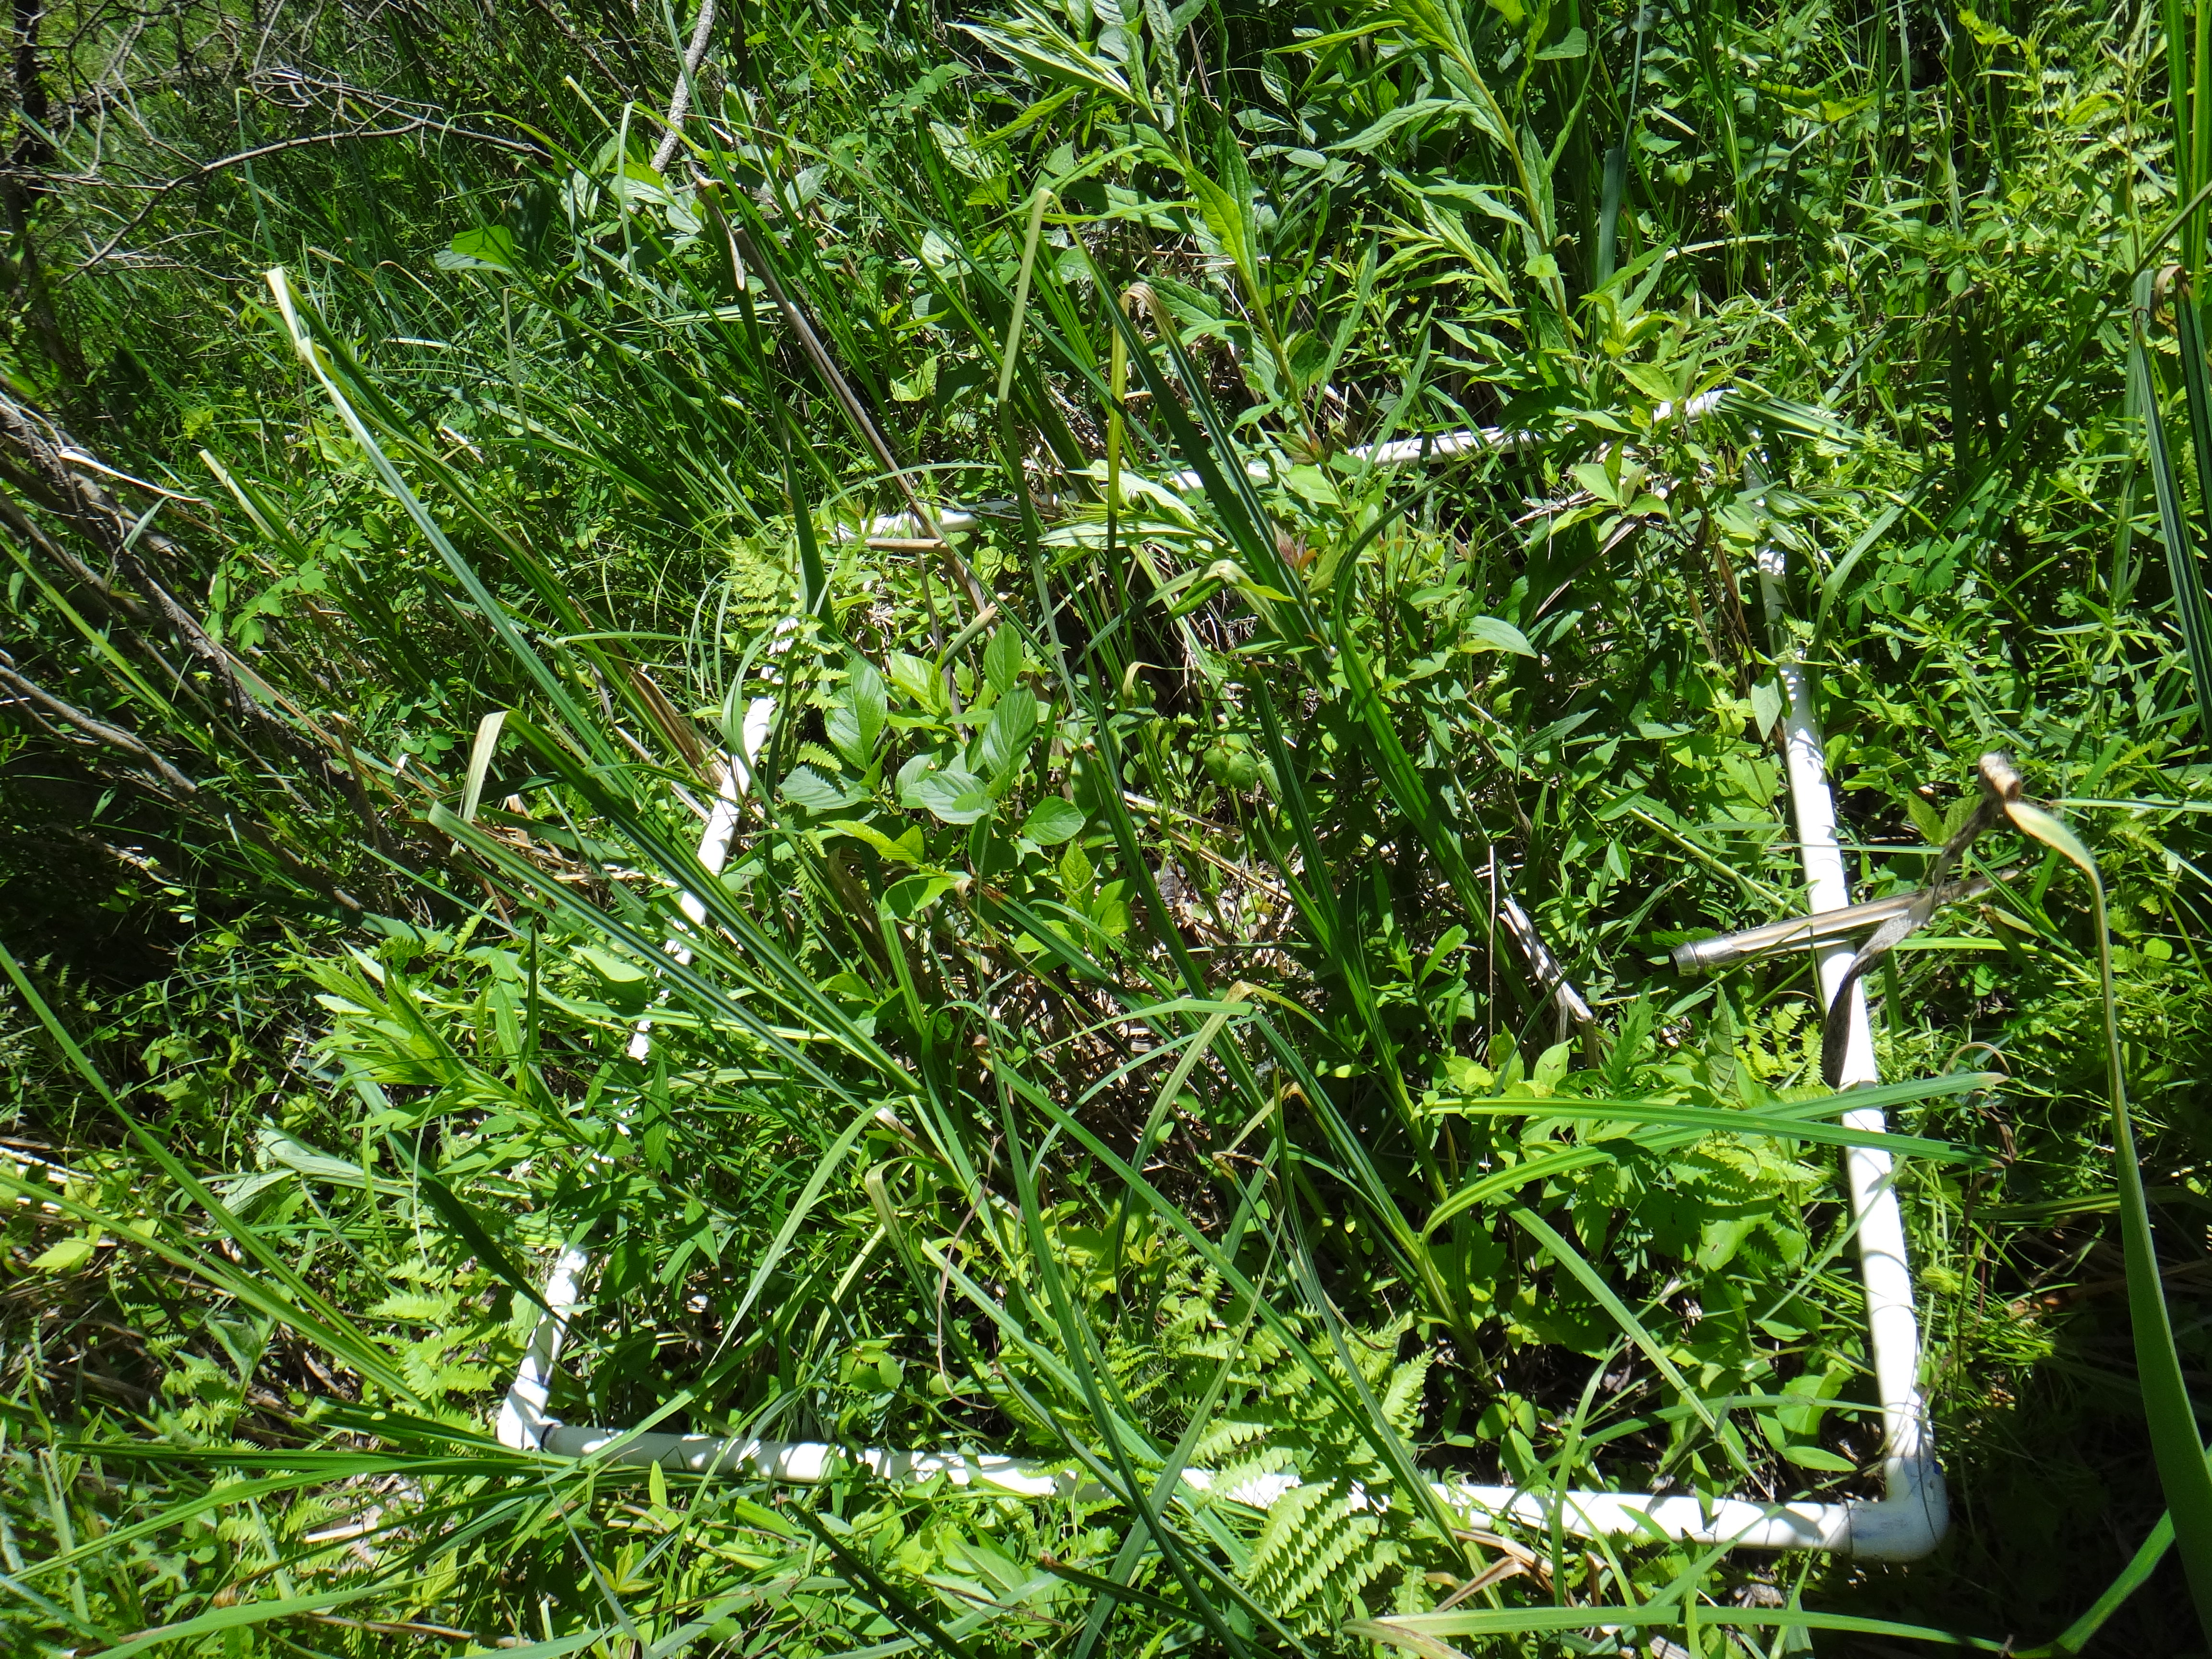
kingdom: Plantae
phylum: Tracheophyta
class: Magnoliopsida
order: Cornales
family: Cornaceae
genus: Cornus
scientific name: Cornus foemina
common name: Swamp dogwood
